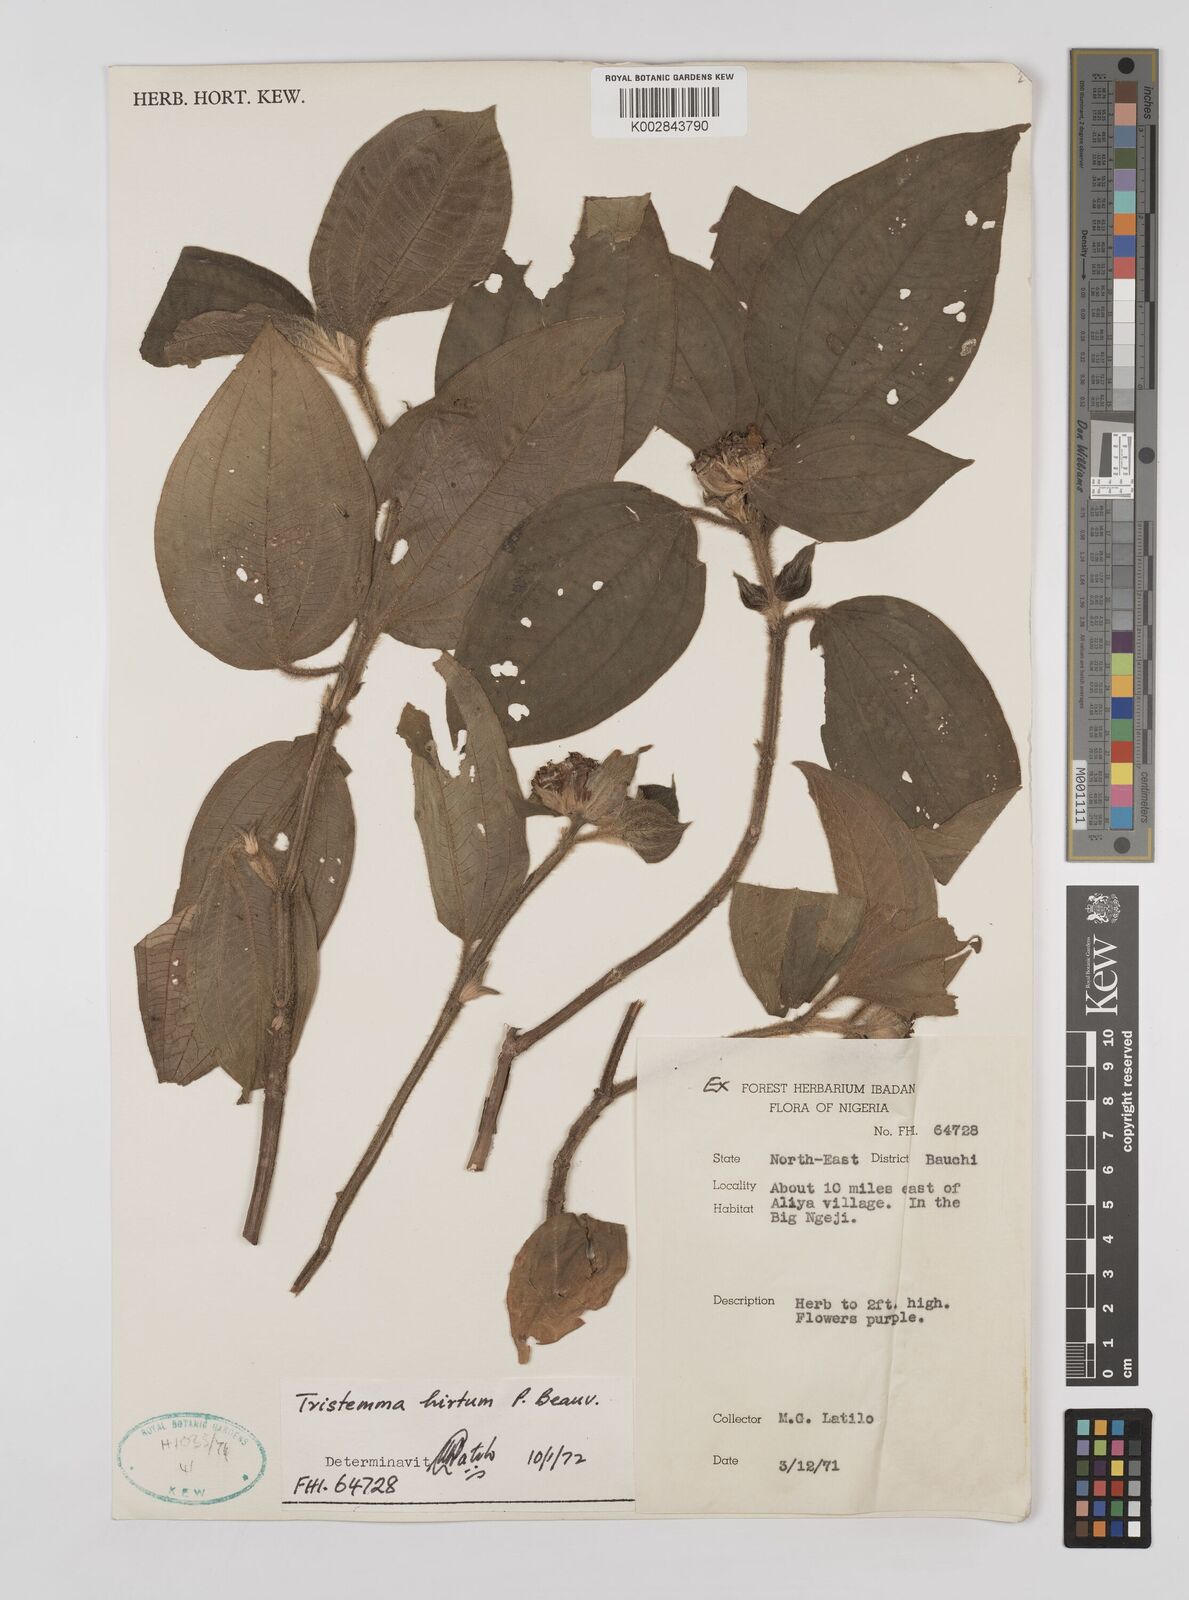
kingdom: Plantae
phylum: Tracheophyta
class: Magnoliopsida
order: Myrtales
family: Melastomataceae
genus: Tristemma
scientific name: Tristemma hirtum
